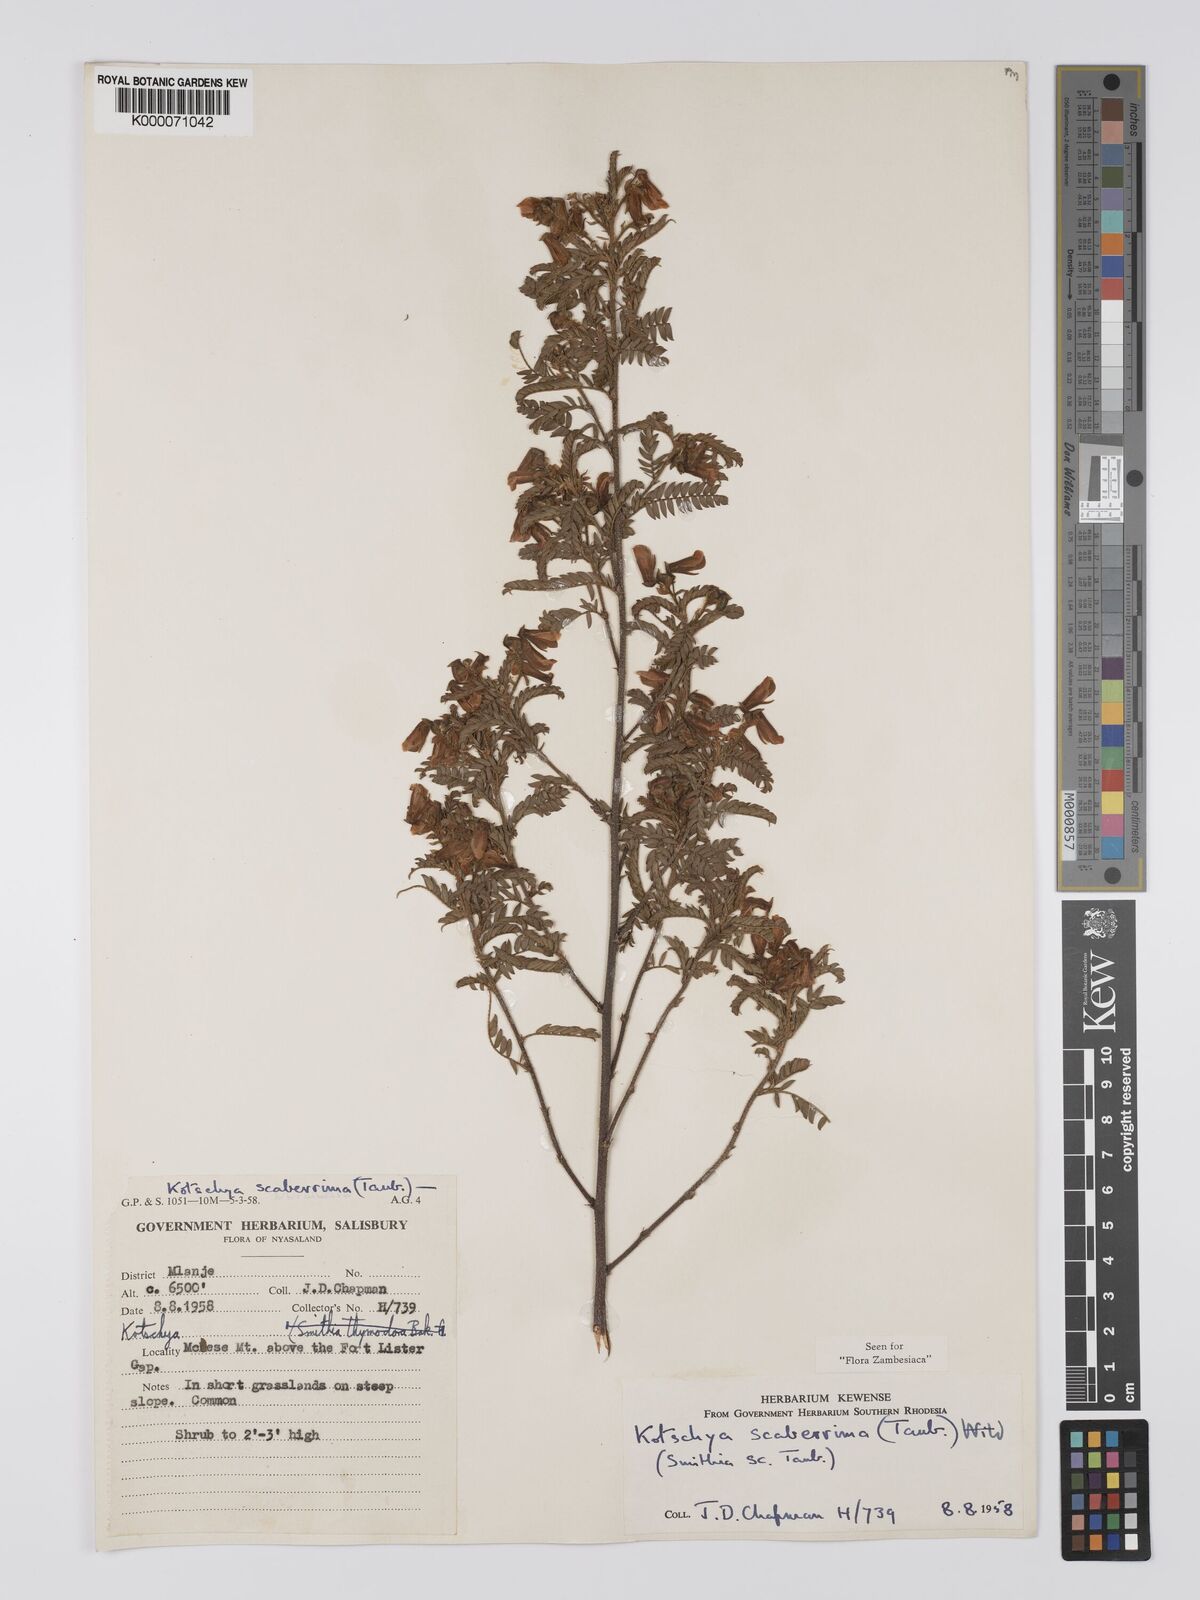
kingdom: Plantae
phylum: Tracheophyta
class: Magnoliopsida
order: Fabales
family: Fabaceae
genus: Kotschya
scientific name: Kotschya scaberrima
